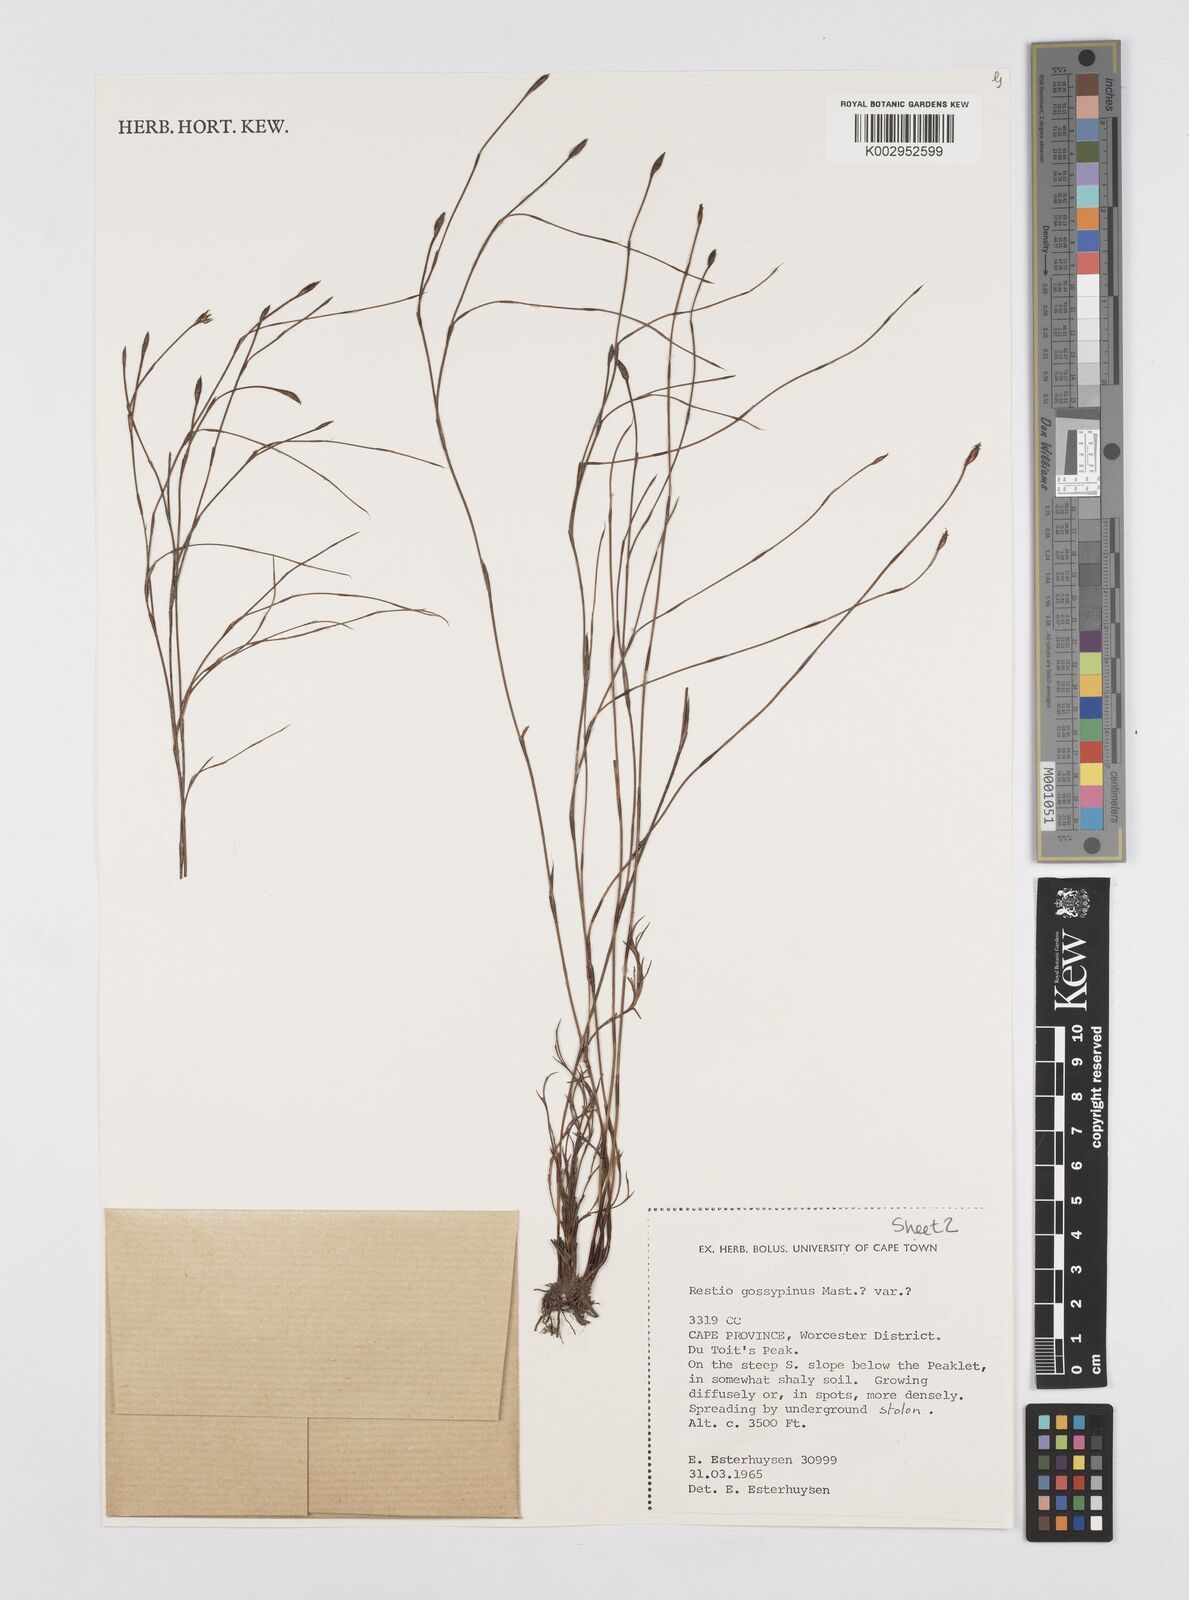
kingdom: Plantae
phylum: Tracheophyta
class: Liliopsida
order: Poales
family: Restionaceae
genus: Restio
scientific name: Restio gossypinus
